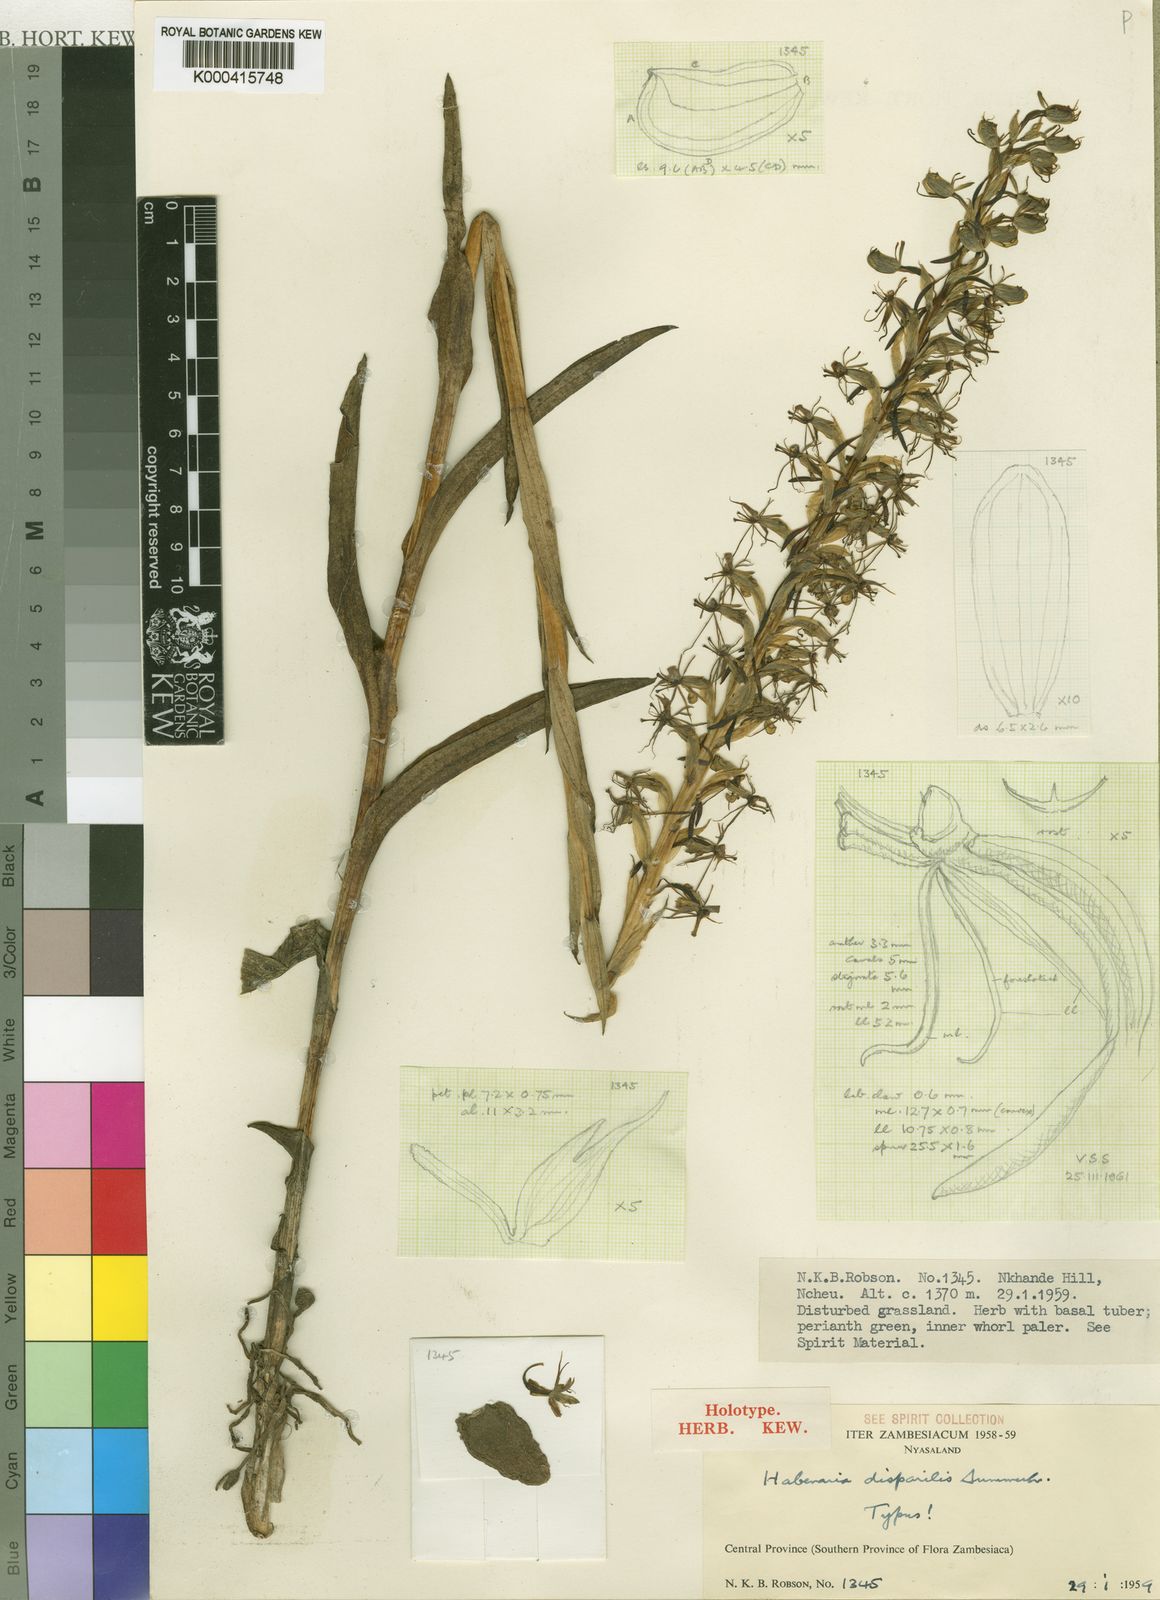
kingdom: Plantae
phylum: Tracheophyta
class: Liliopsida
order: Asparagales
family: Orchidaceae
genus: Habenaria
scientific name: Habenaria disparilis
